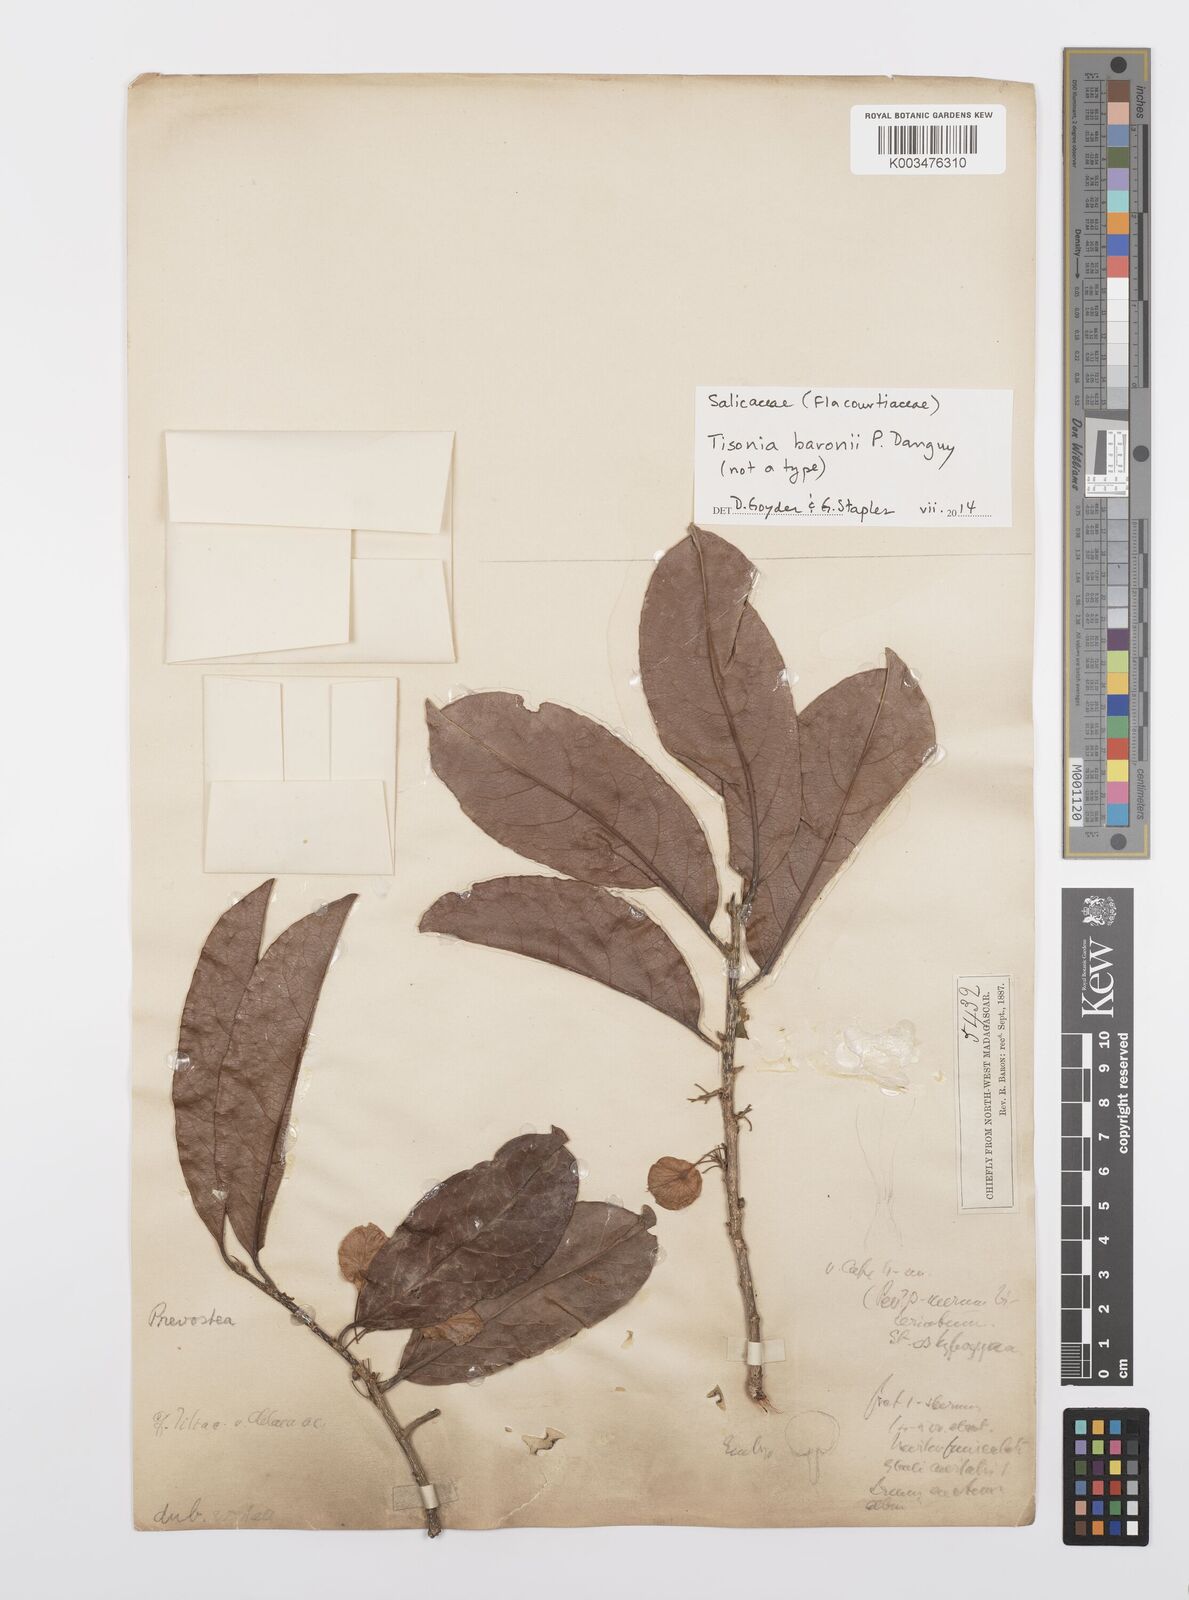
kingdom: Plantae
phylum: Tracheophyta
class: Magnoliopsida
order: Malpighiales
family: Salicaceae
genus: Tisonia
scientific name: Tisonia baronii
